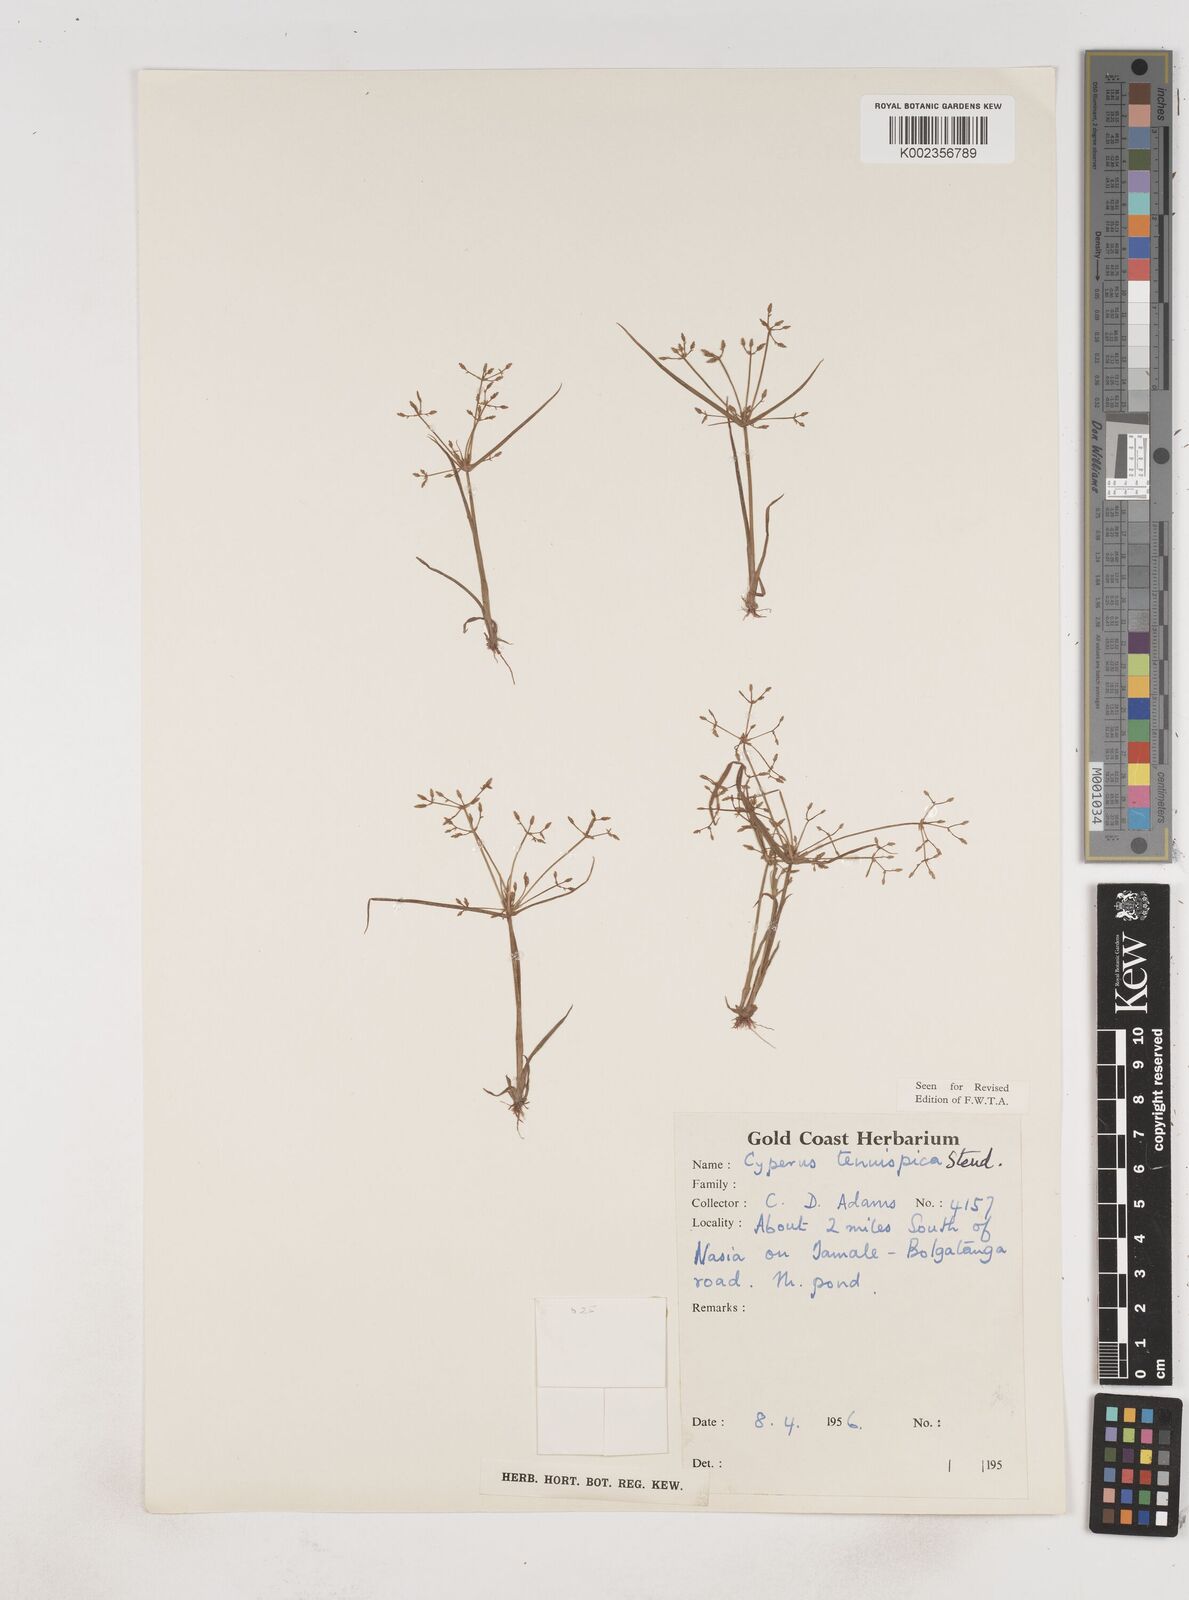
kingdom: Plantae
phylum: Tracheophyta
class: Liliopsida
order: Poales
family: Cyperaceae
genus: Cyperus
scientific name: Cyperus tenuispica
